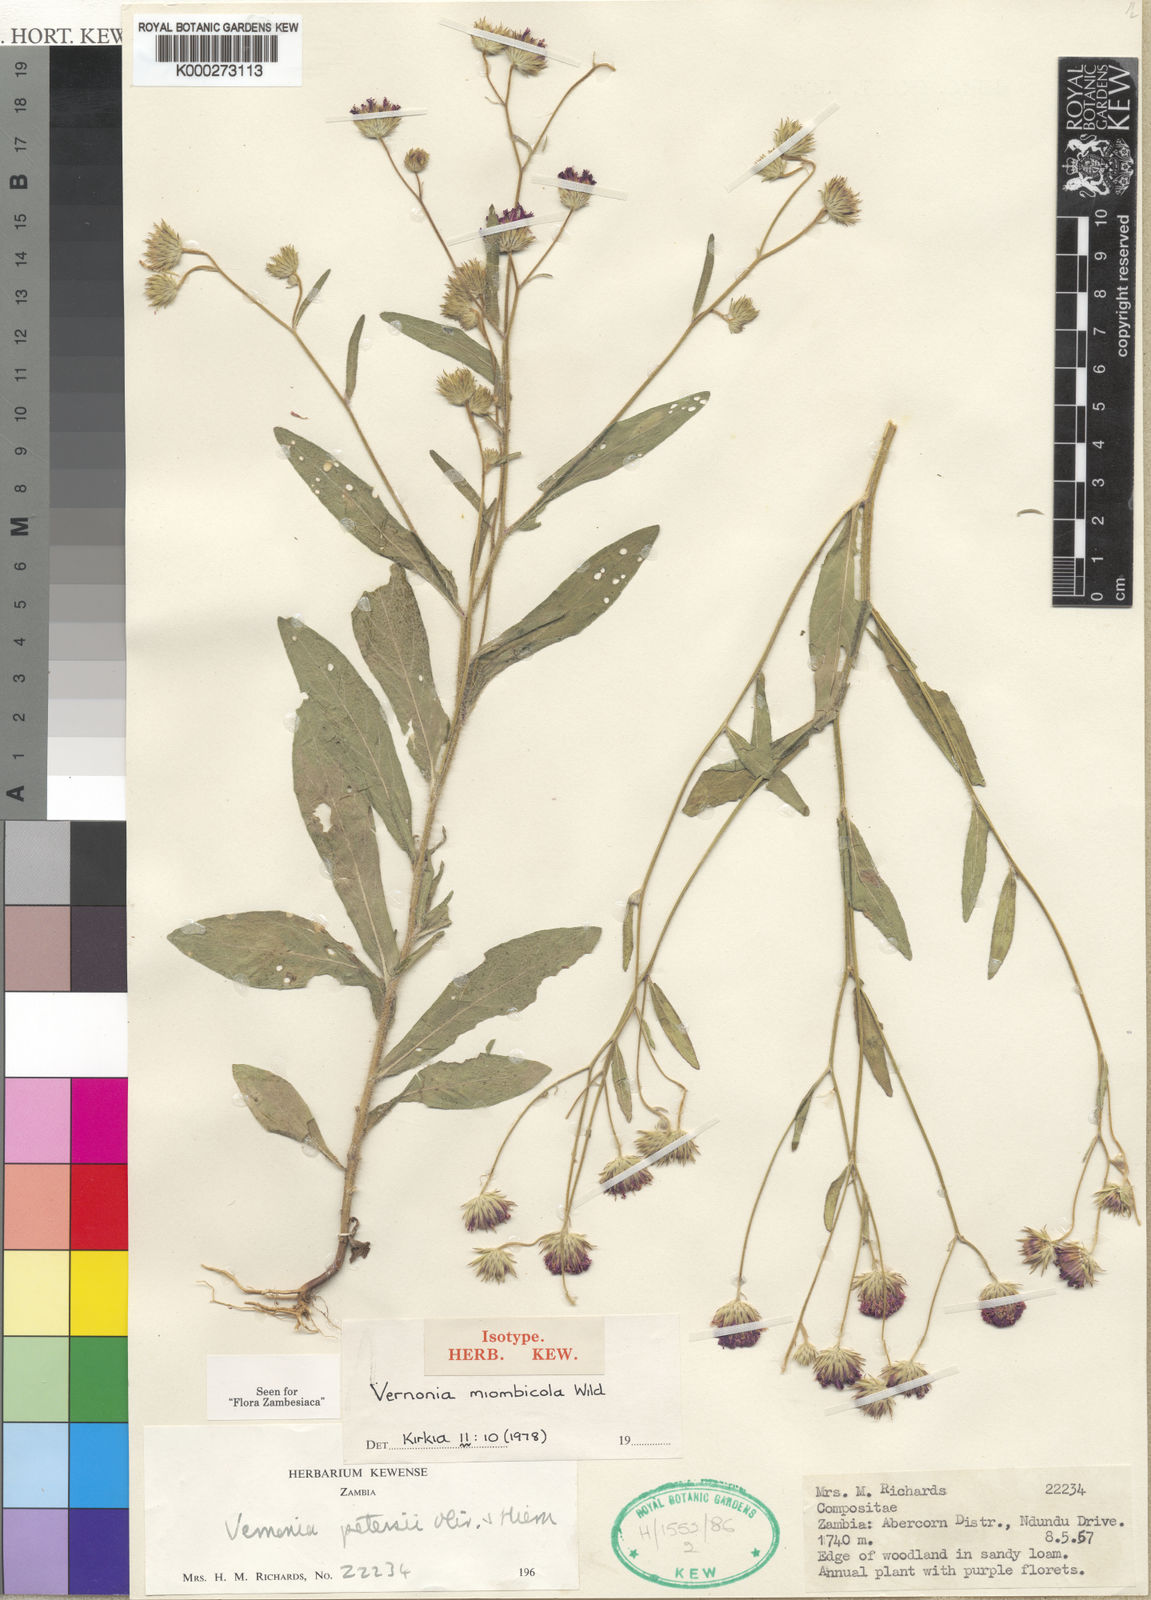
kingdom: Plantae
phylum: Tracheophyta
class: Magnoliopsida
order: Asterales
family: Asteraceae
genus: Vernonia
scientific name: Vernonia miombicola
